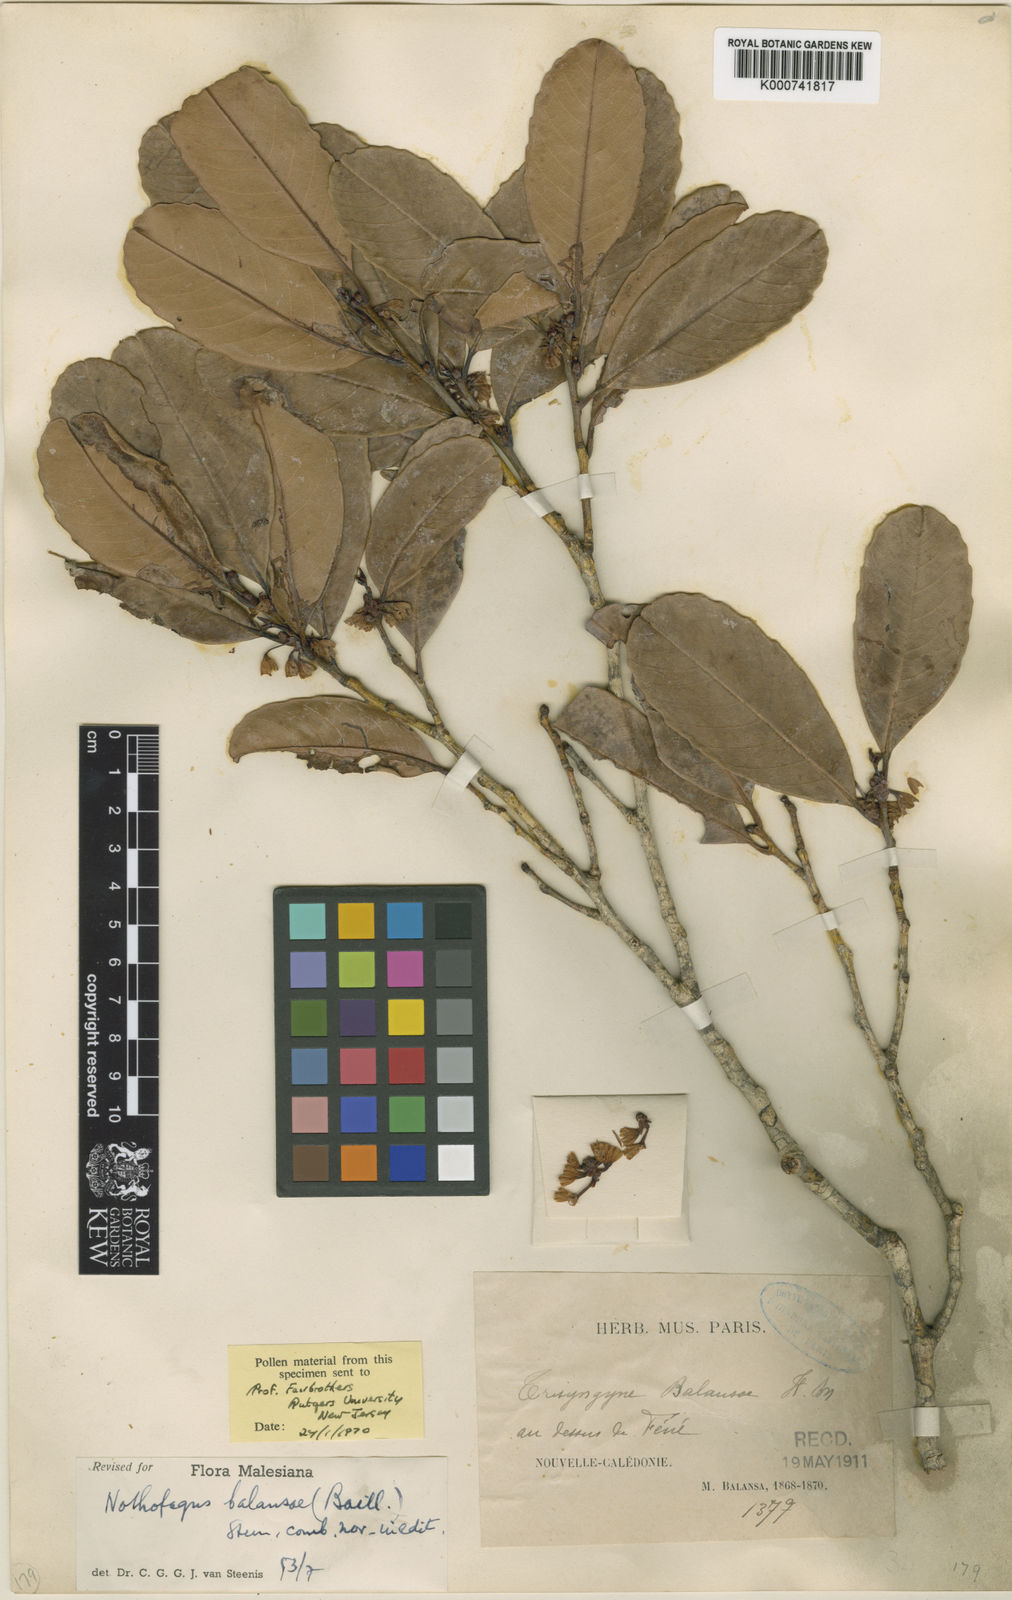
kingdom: Plantae
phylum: Tracheophyta
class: Magnoliopsida
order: Fagales
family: Nothofagaceae
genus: Nothofagus
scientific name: Nothofagus balansae
